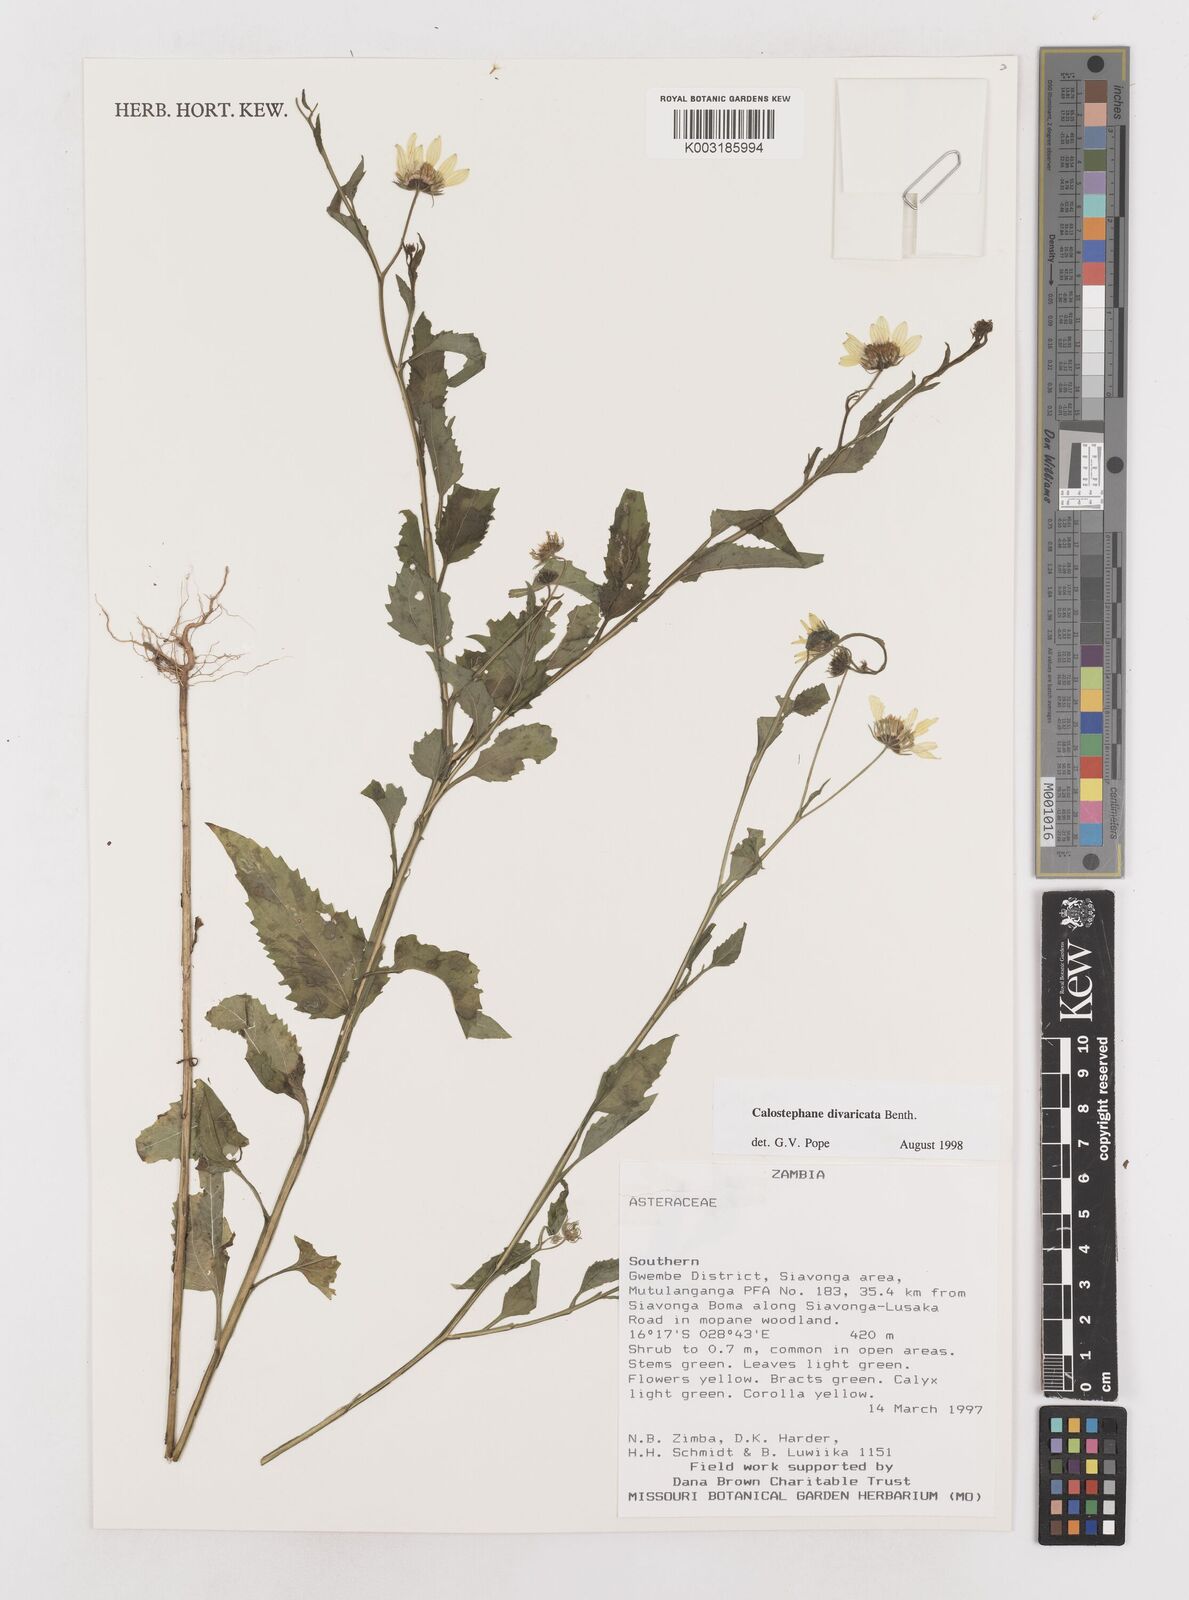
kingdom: Plantae
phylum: Tracheophyta
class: Magnoliopsida
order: Asterales
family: Asteraceae
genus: Calostephane
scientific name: Calostephane divaricata
